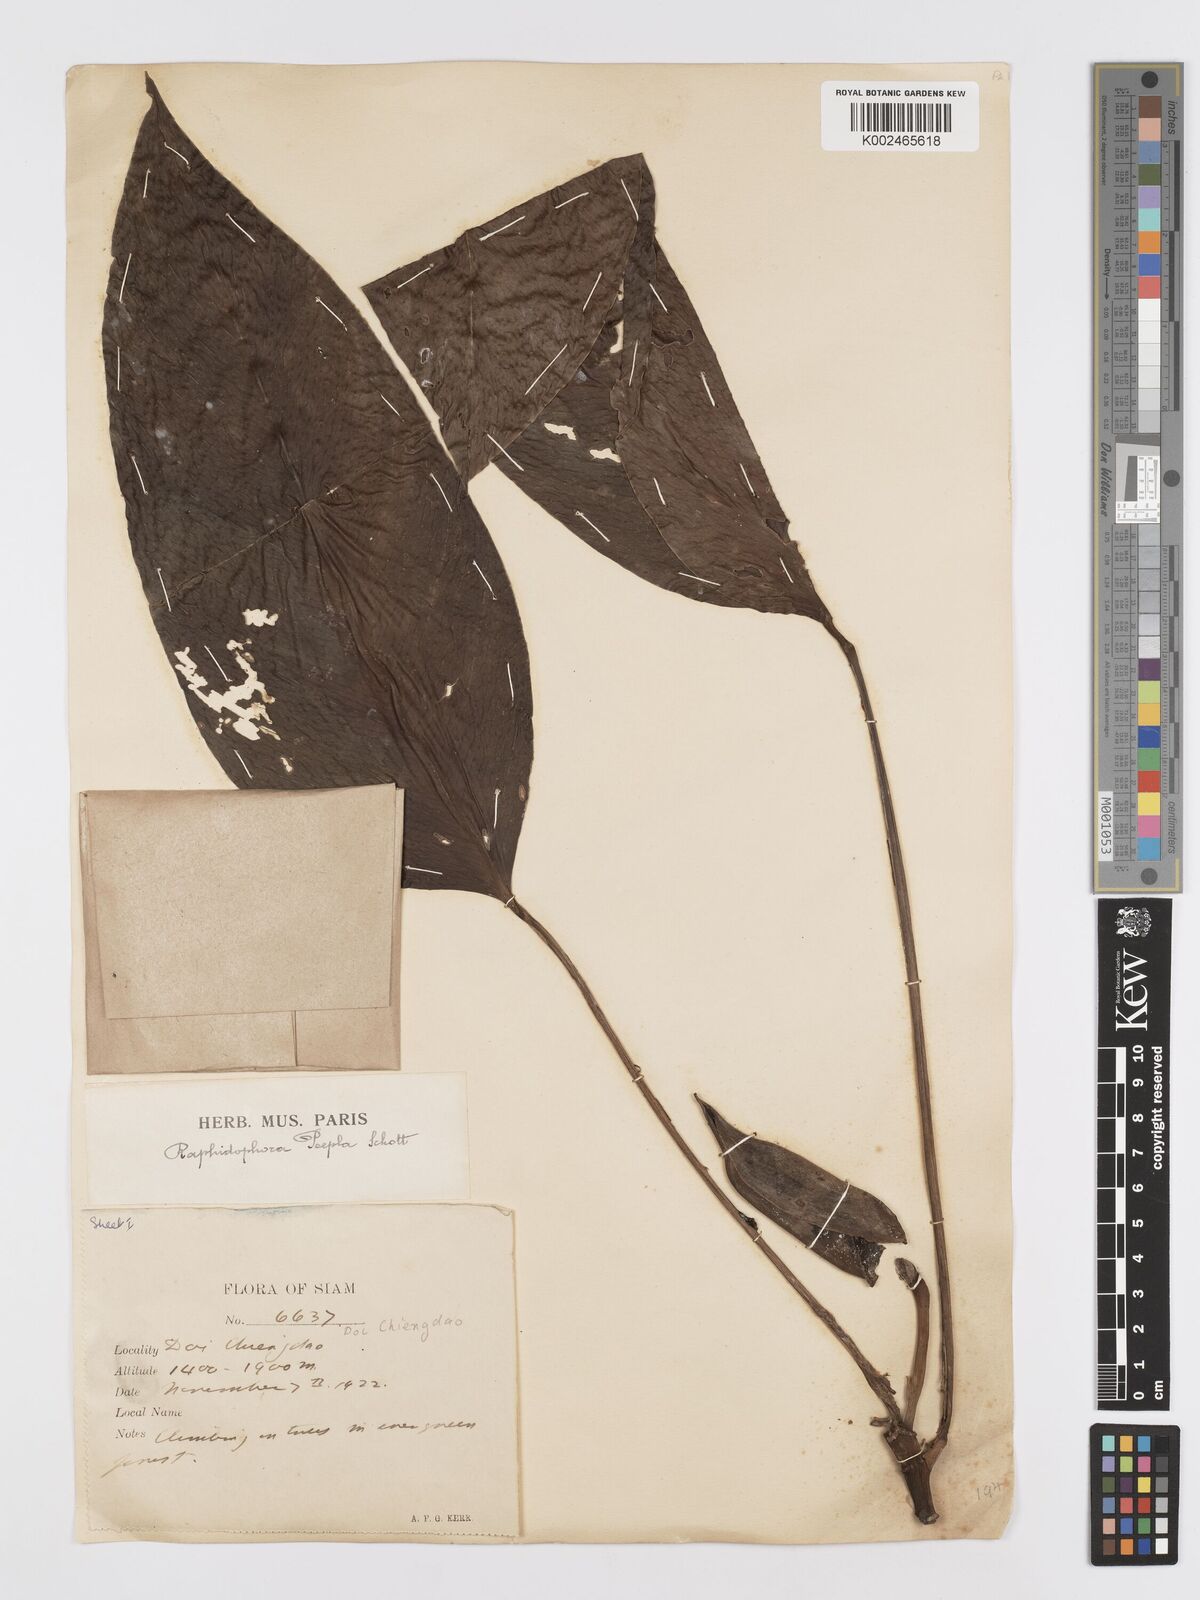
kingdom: Plantae
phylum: Tracheophyta
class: Liliopsida
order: Alismatales
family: Araceae
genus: Rhaphidophora
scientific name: Rhaphidophora peepla
